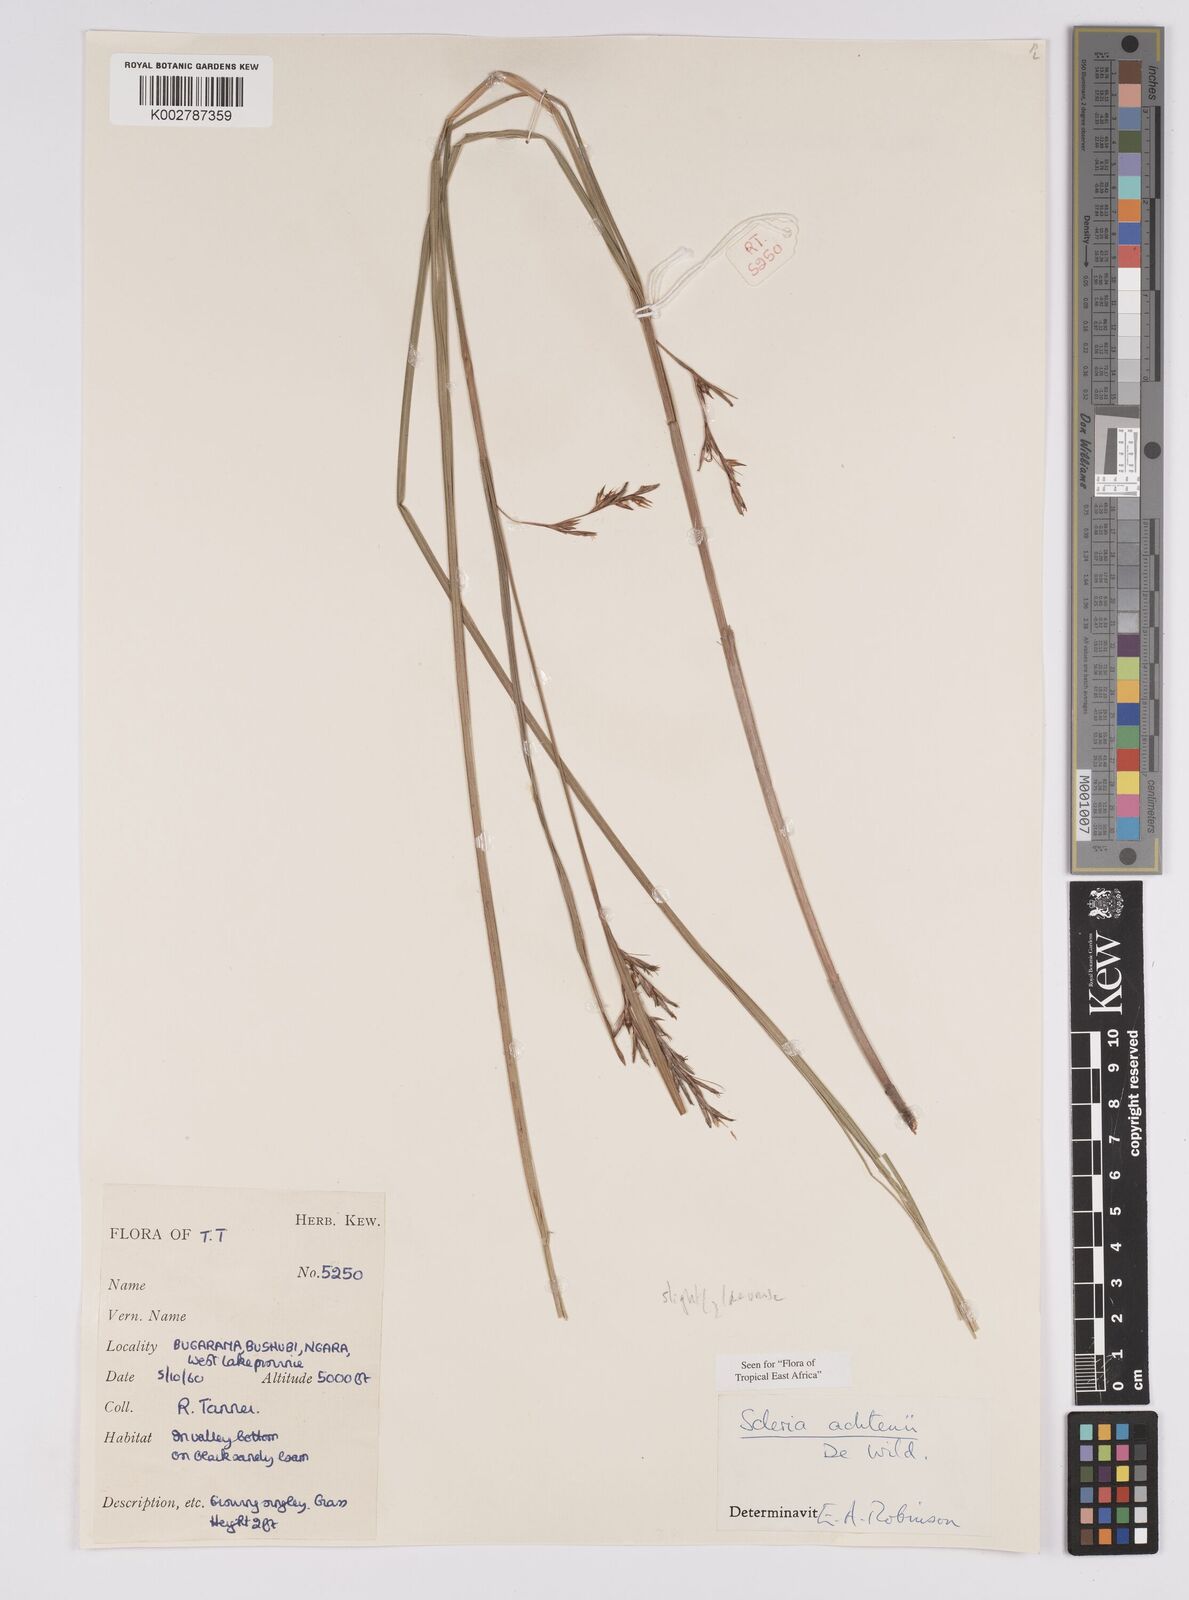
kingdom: Plantae
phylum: Tracheophyta
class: Liliopsida
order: Poales
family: Cyperaceae
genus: Scleria
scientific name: Scleria achtenii
